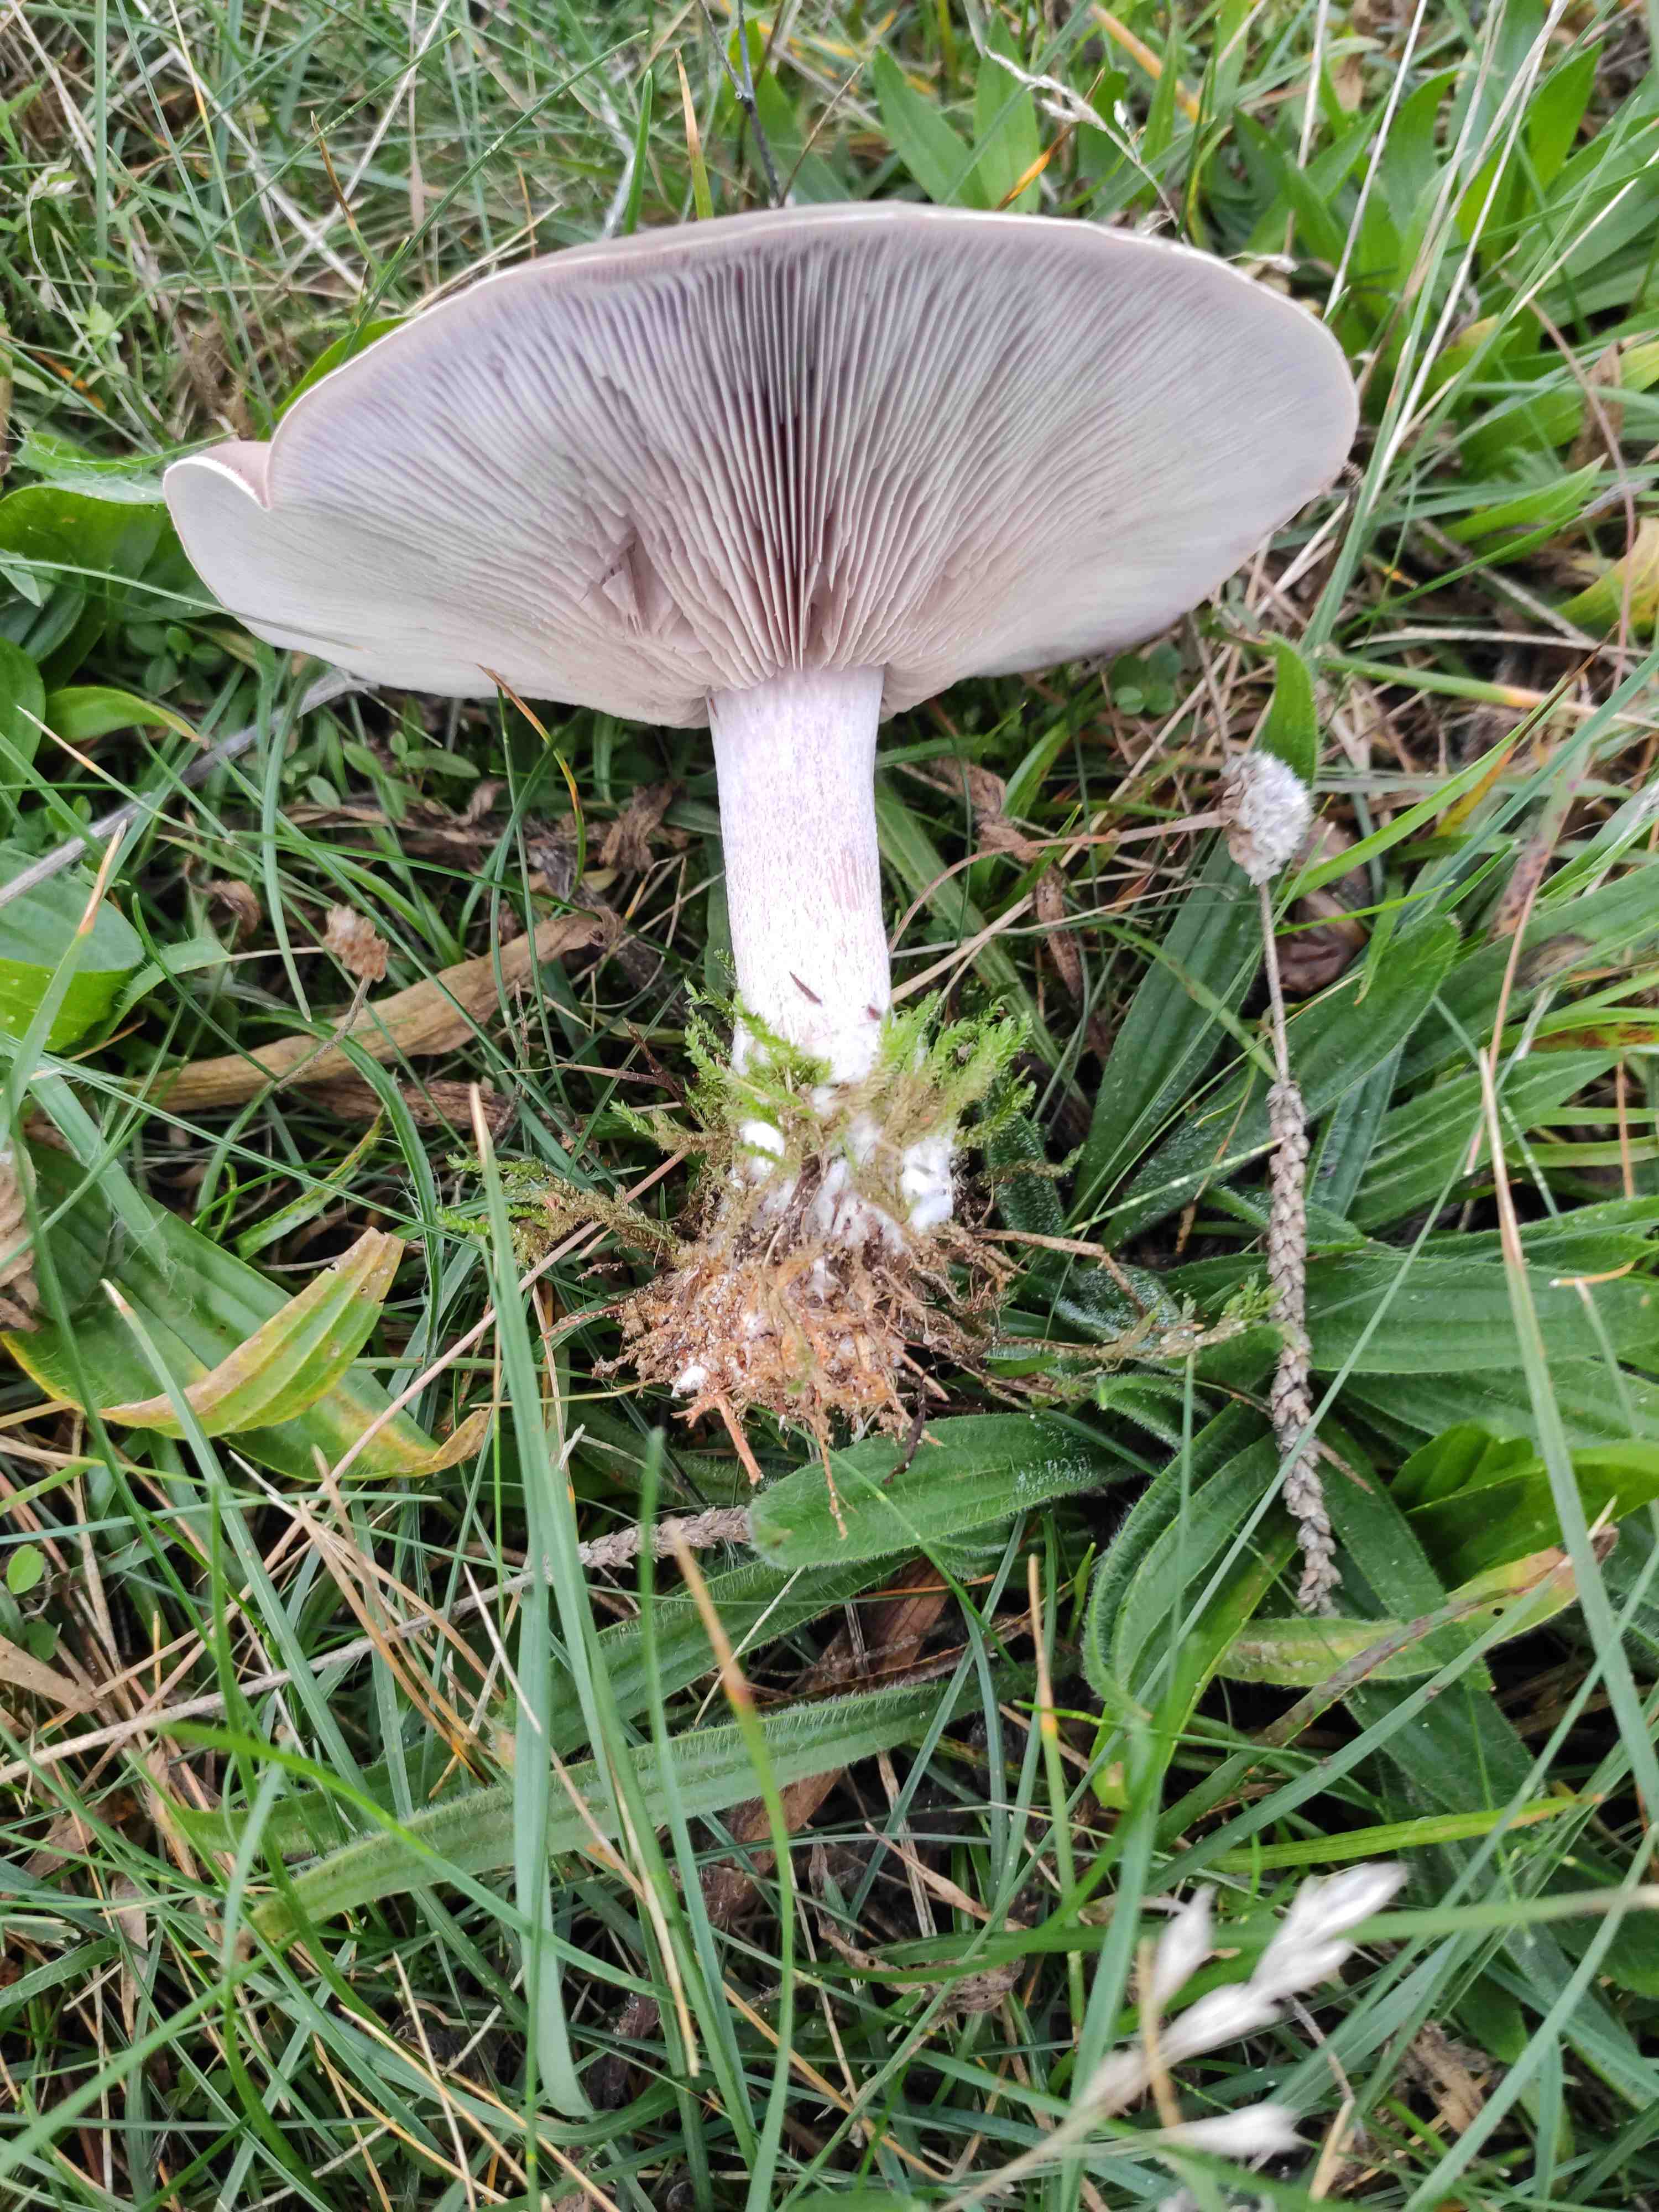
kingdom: Fungi
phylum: Basidiomycota
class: Agaricomycetes
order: Agaricales
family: Tricholomataceae
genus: Lepista
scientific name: Lepista nuda
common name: violet hekseringshat
